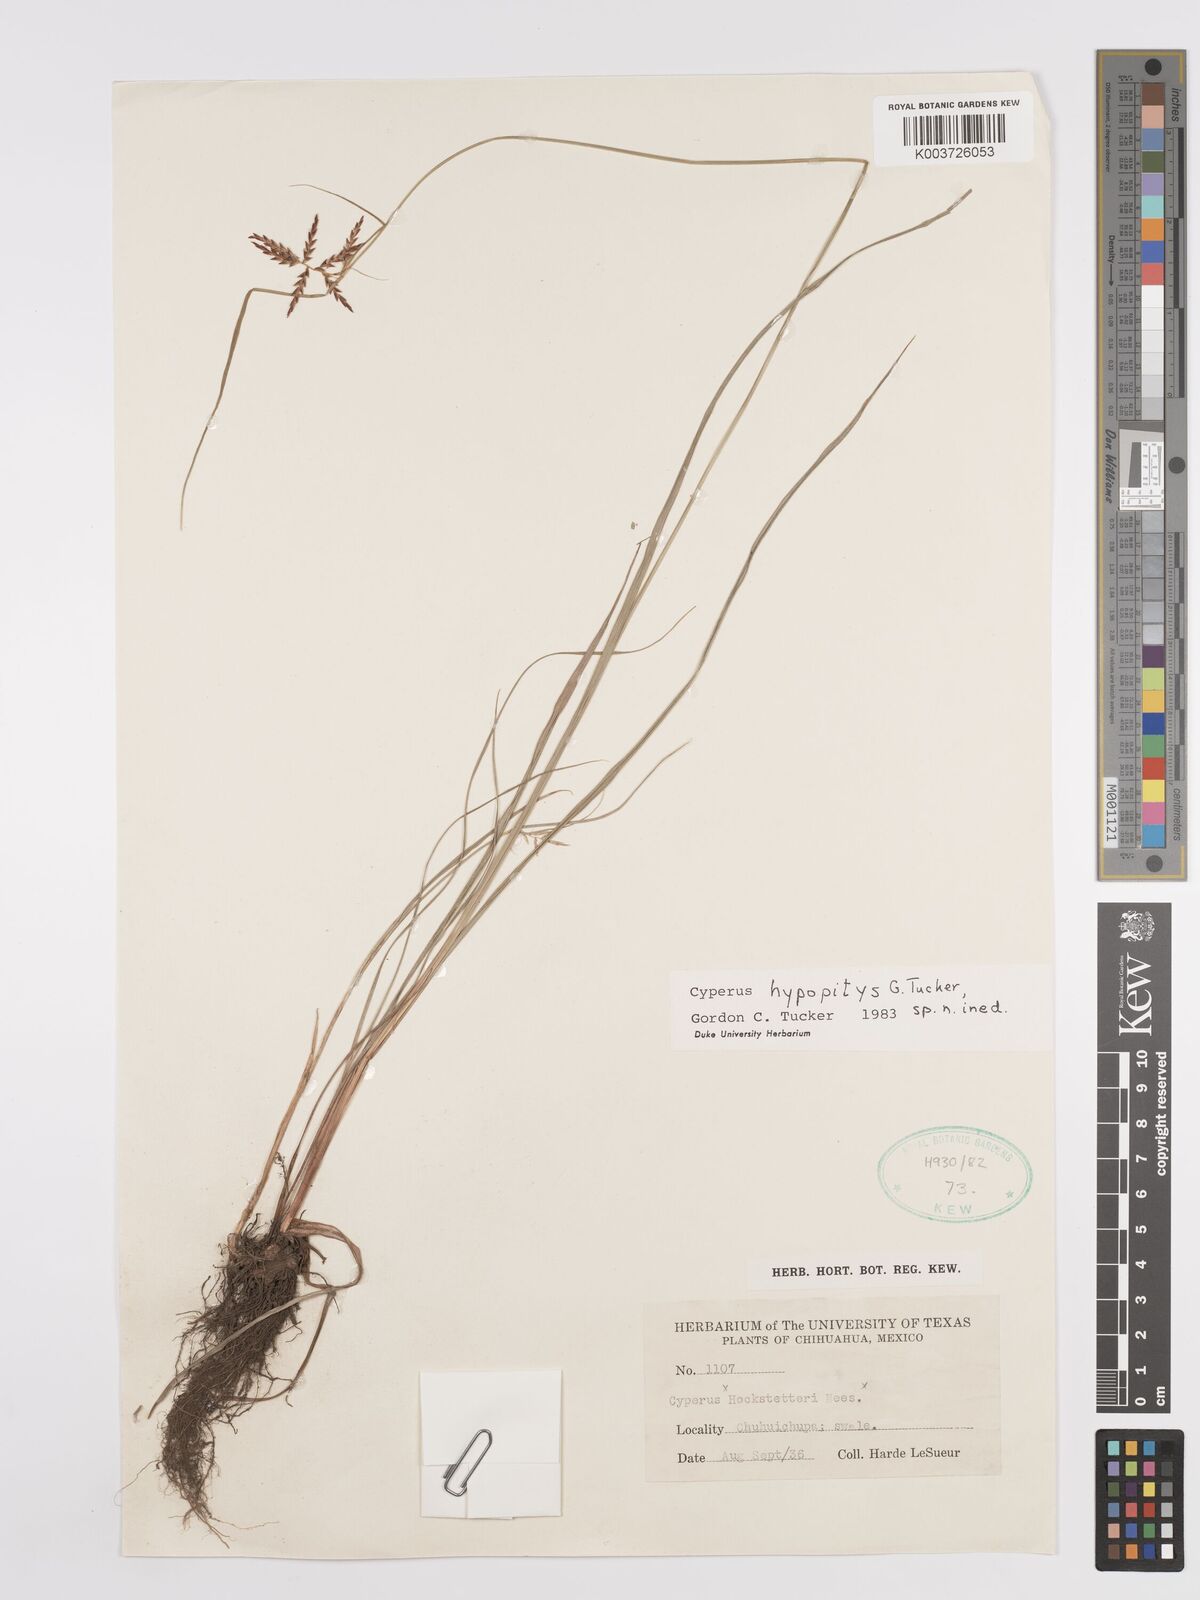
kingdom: Plantae
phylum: Tracheophyta
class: Liliopsida
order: Poales
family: Cyperaceae
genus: Cyperus
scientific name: Cyperus hypopitys
